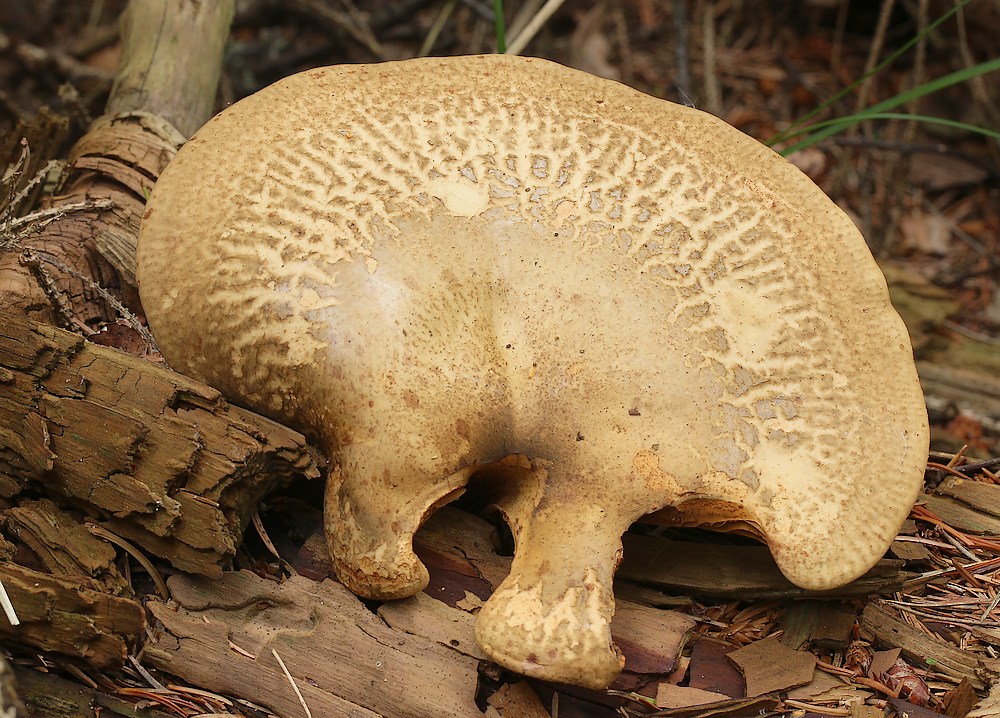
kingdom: Fungi
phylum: Basidiomycota
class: Agaricomycetes
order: Boletales
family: Tapinellaceae
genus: Tapinella
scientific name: Tapinella atrotomentosa
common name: sortfiltet viftesvamp
